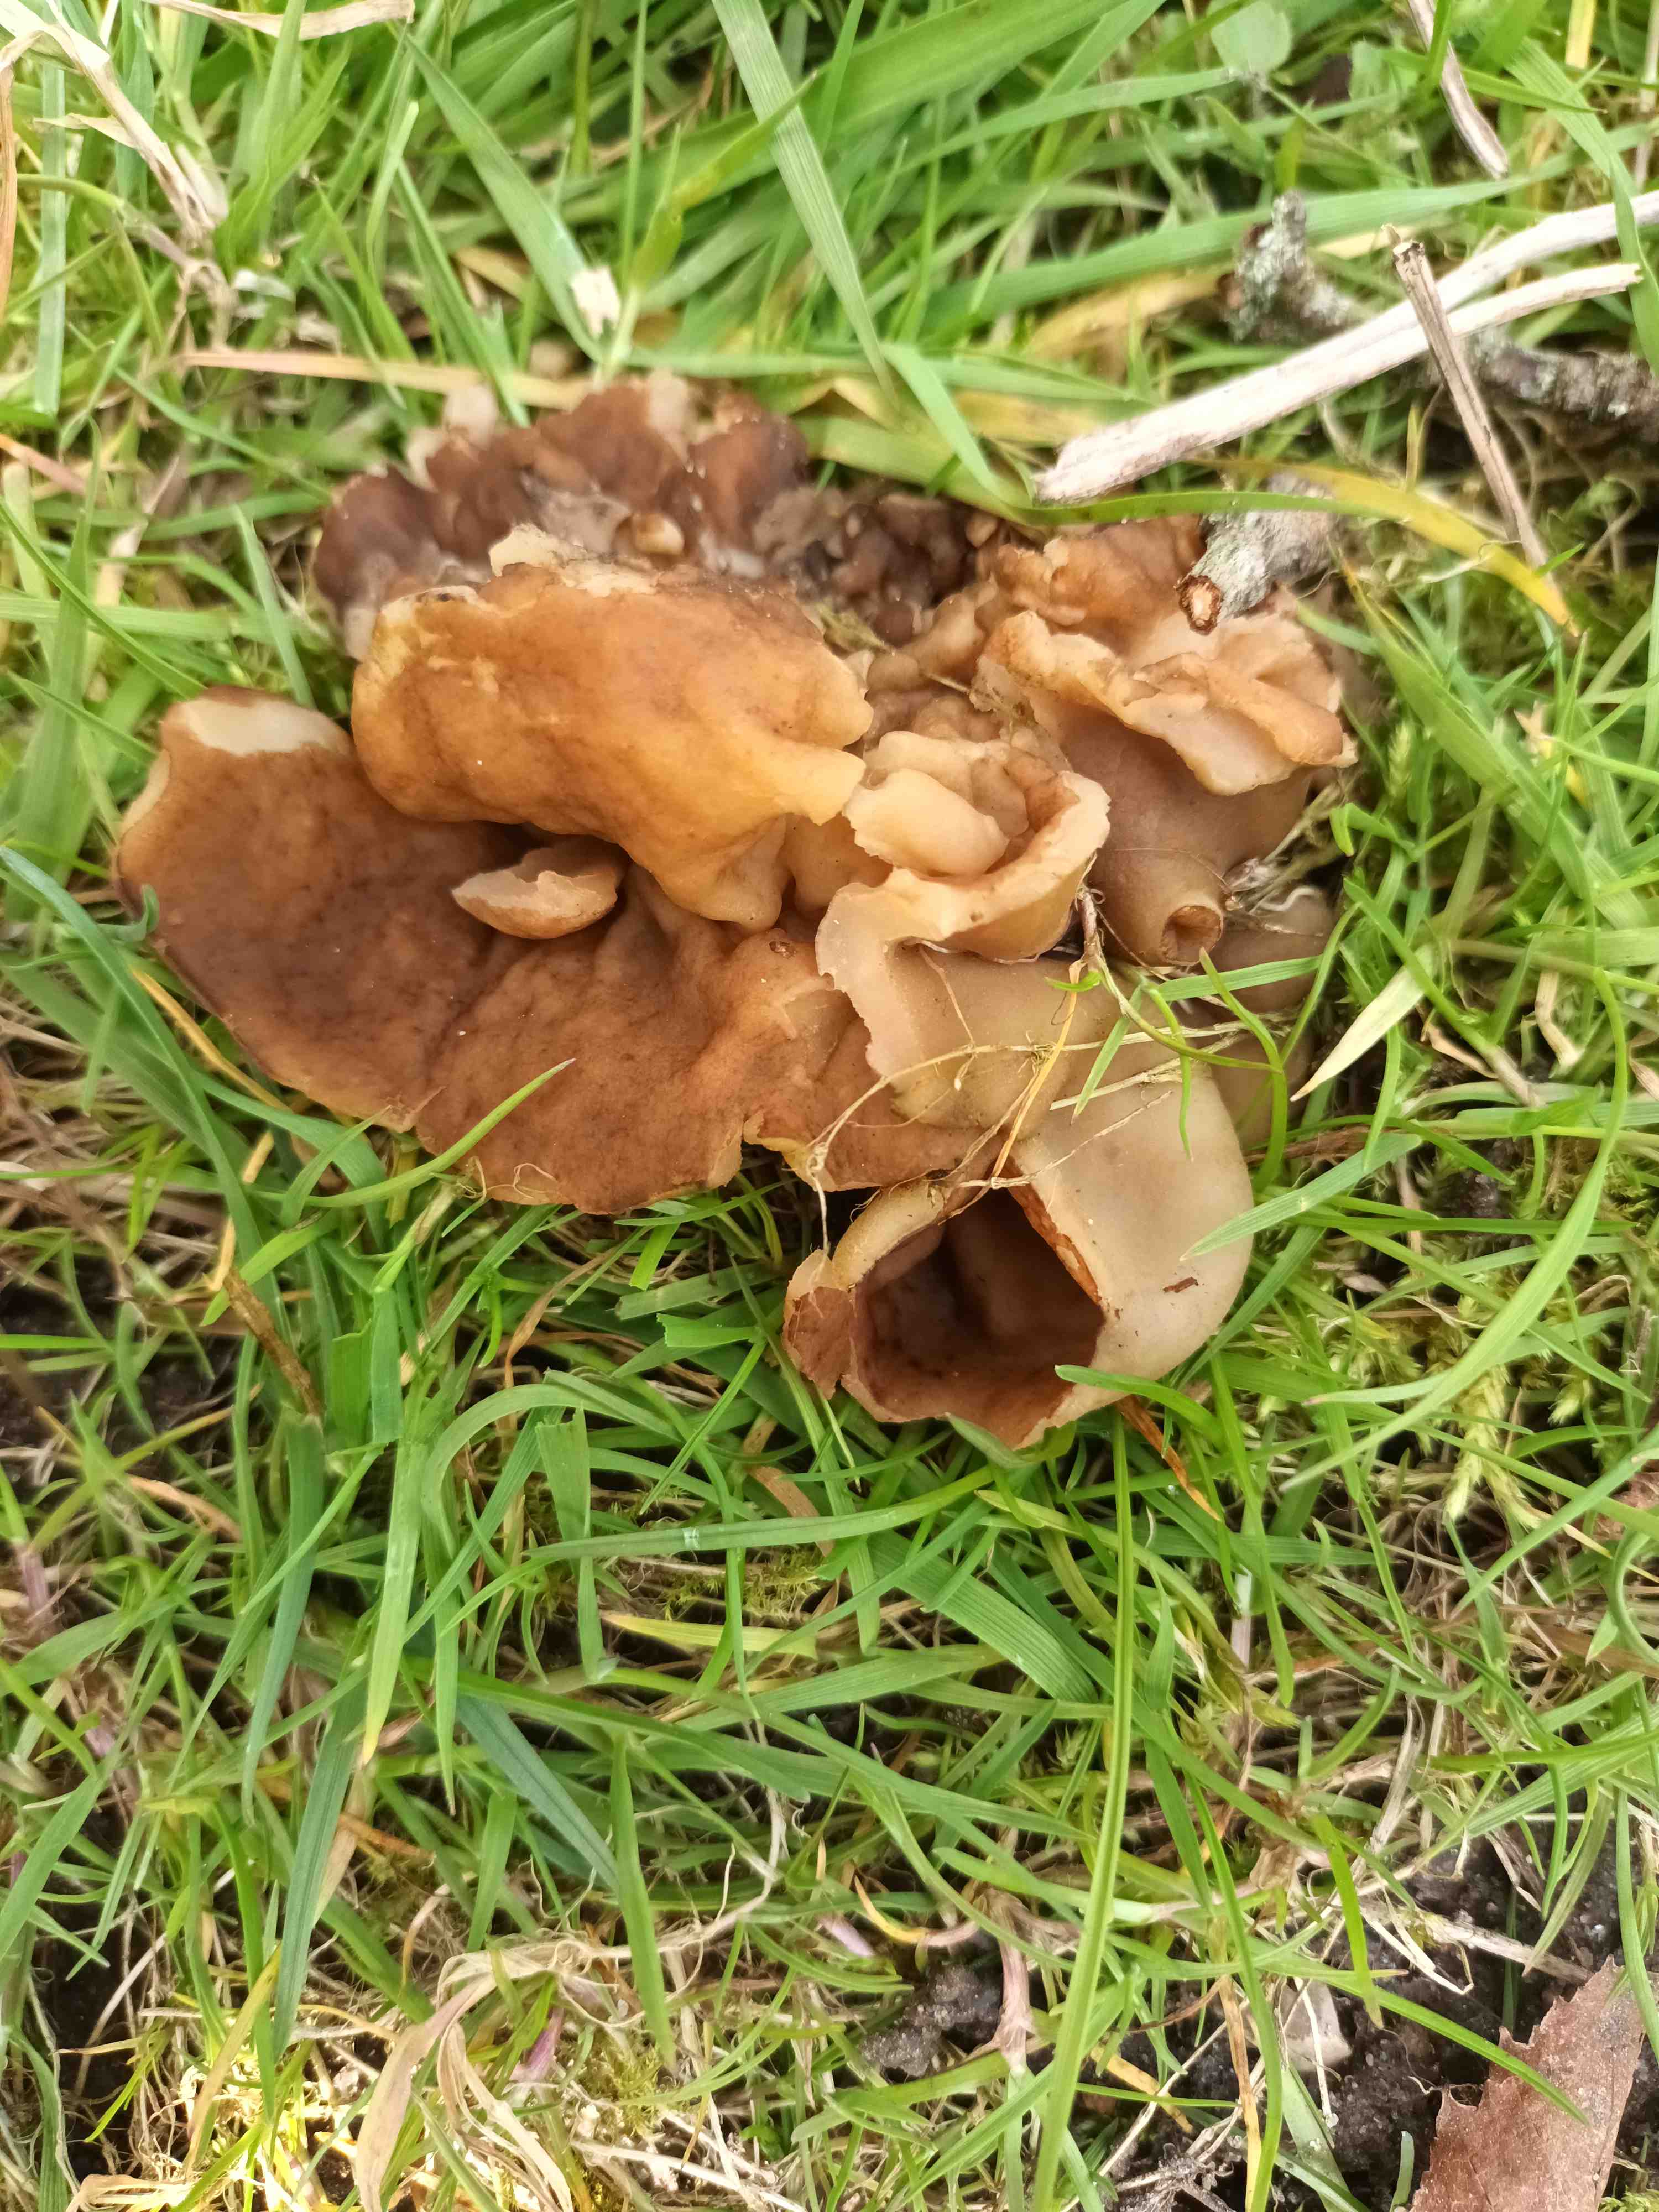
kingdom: Fungi
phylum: Ascomycota
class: Pezizomycetes
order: Pezizales
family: Morchellaceae
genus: Disciotis
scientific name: Disciotis venosa
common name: klor-bægermorkel
